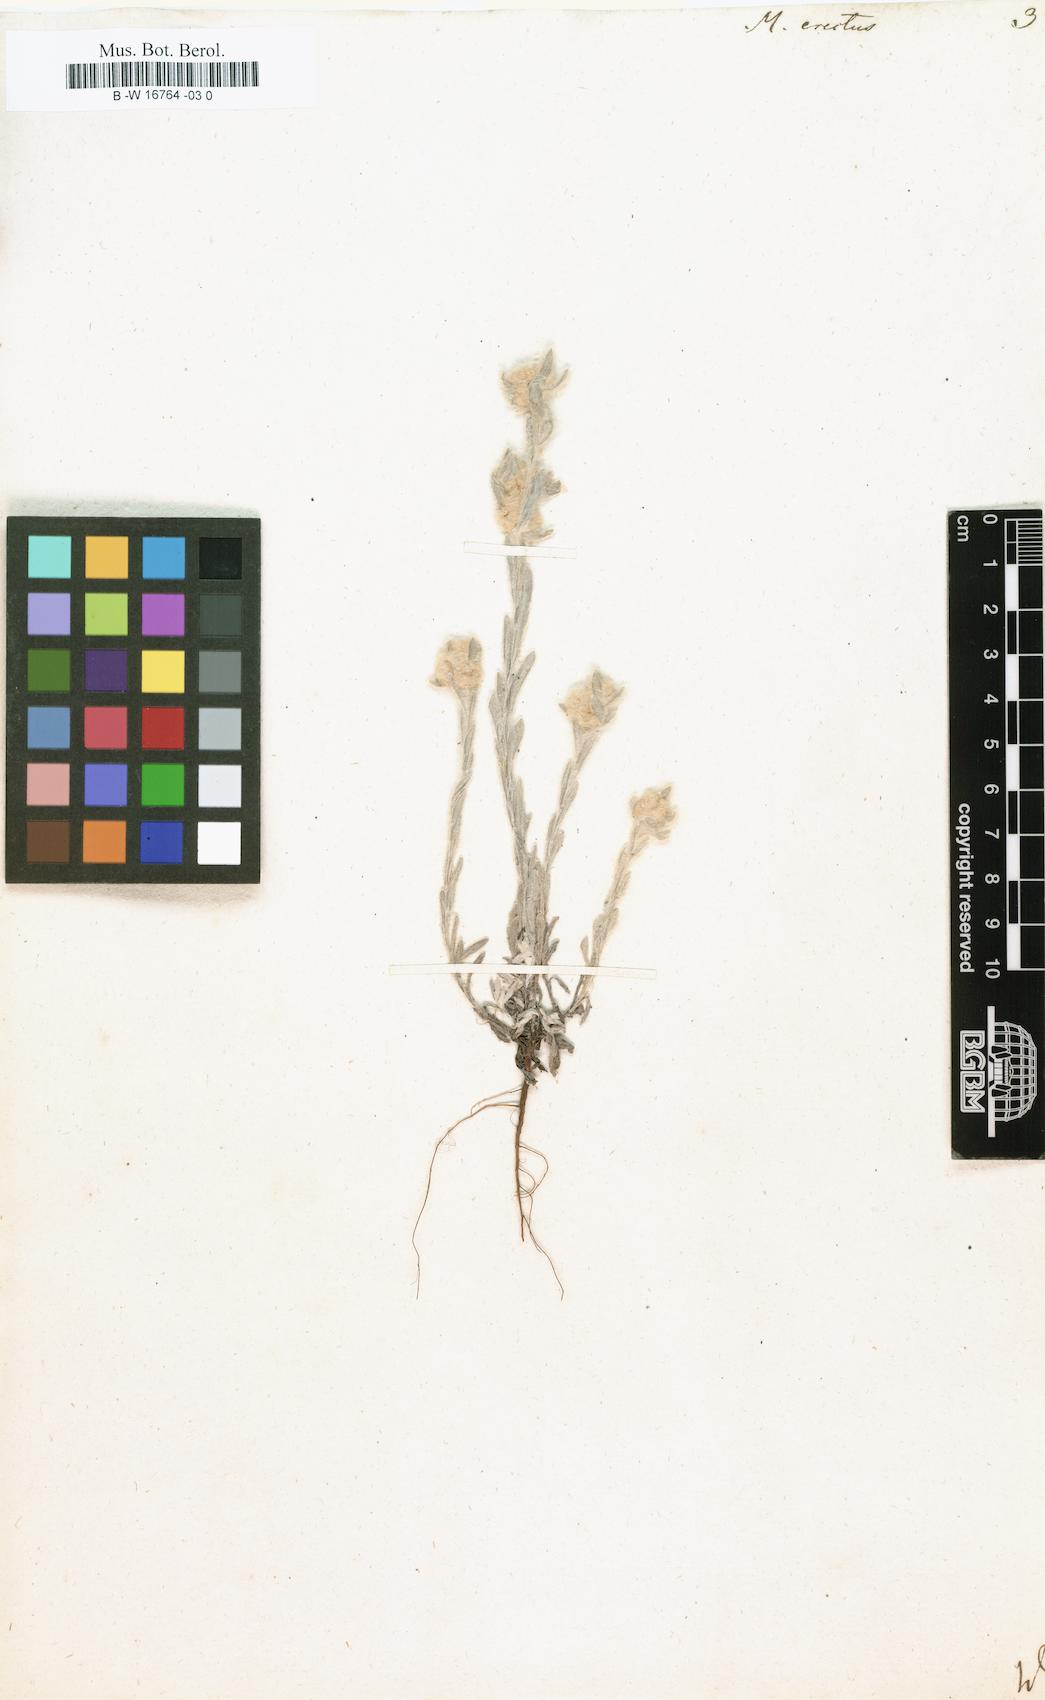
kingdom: Plantae
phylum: Tracheophyta
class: Magnoliopsida
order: Asterales
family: Asteraceae
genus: Bombycilaena
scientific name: Bombycilaena
